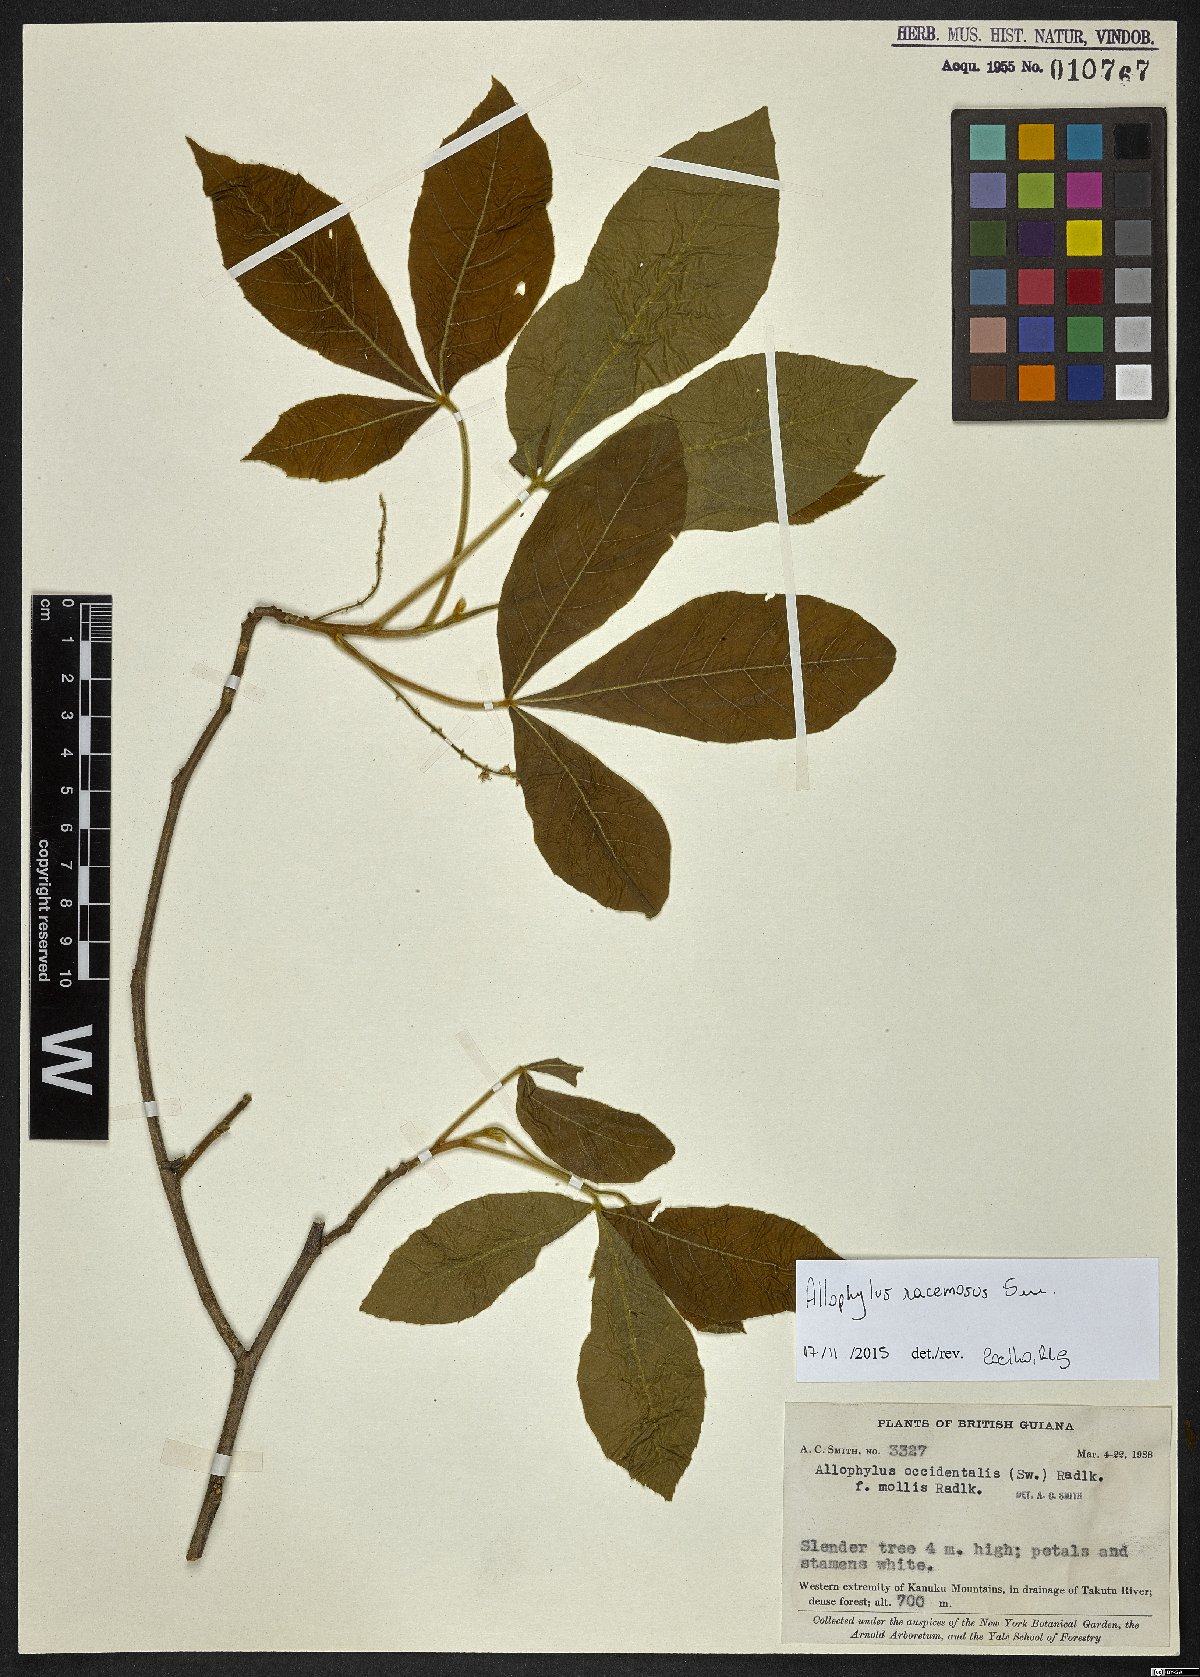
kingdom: Plantae
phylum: Tracheophyta
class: Magnoliopsida
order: Sapindales
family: Sapindaceae
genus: Allophylus
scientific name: Allophylus racemosus
